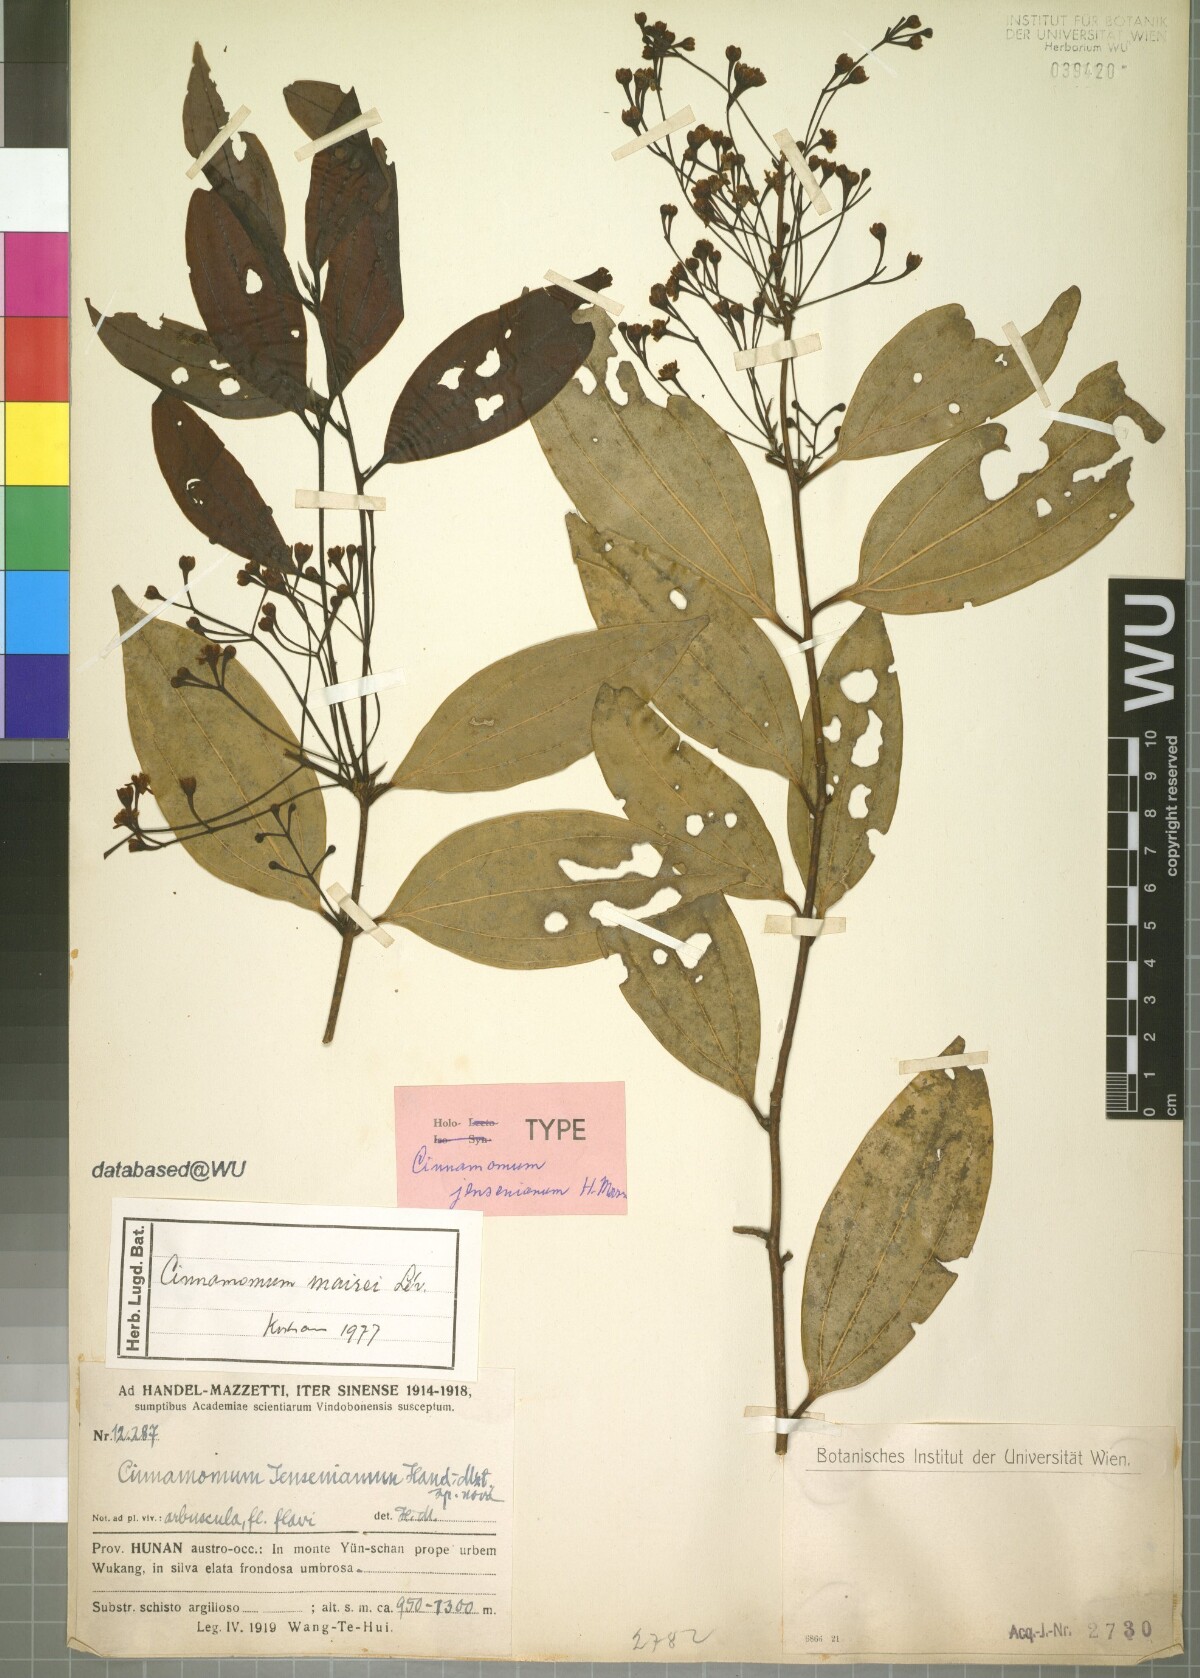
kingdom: Plantae
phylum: Tracheophyta
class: Magnoliopsida
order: Laurales
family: Lauraceae
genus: Cinnamomum
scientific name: Cinnamomum jensenianum
